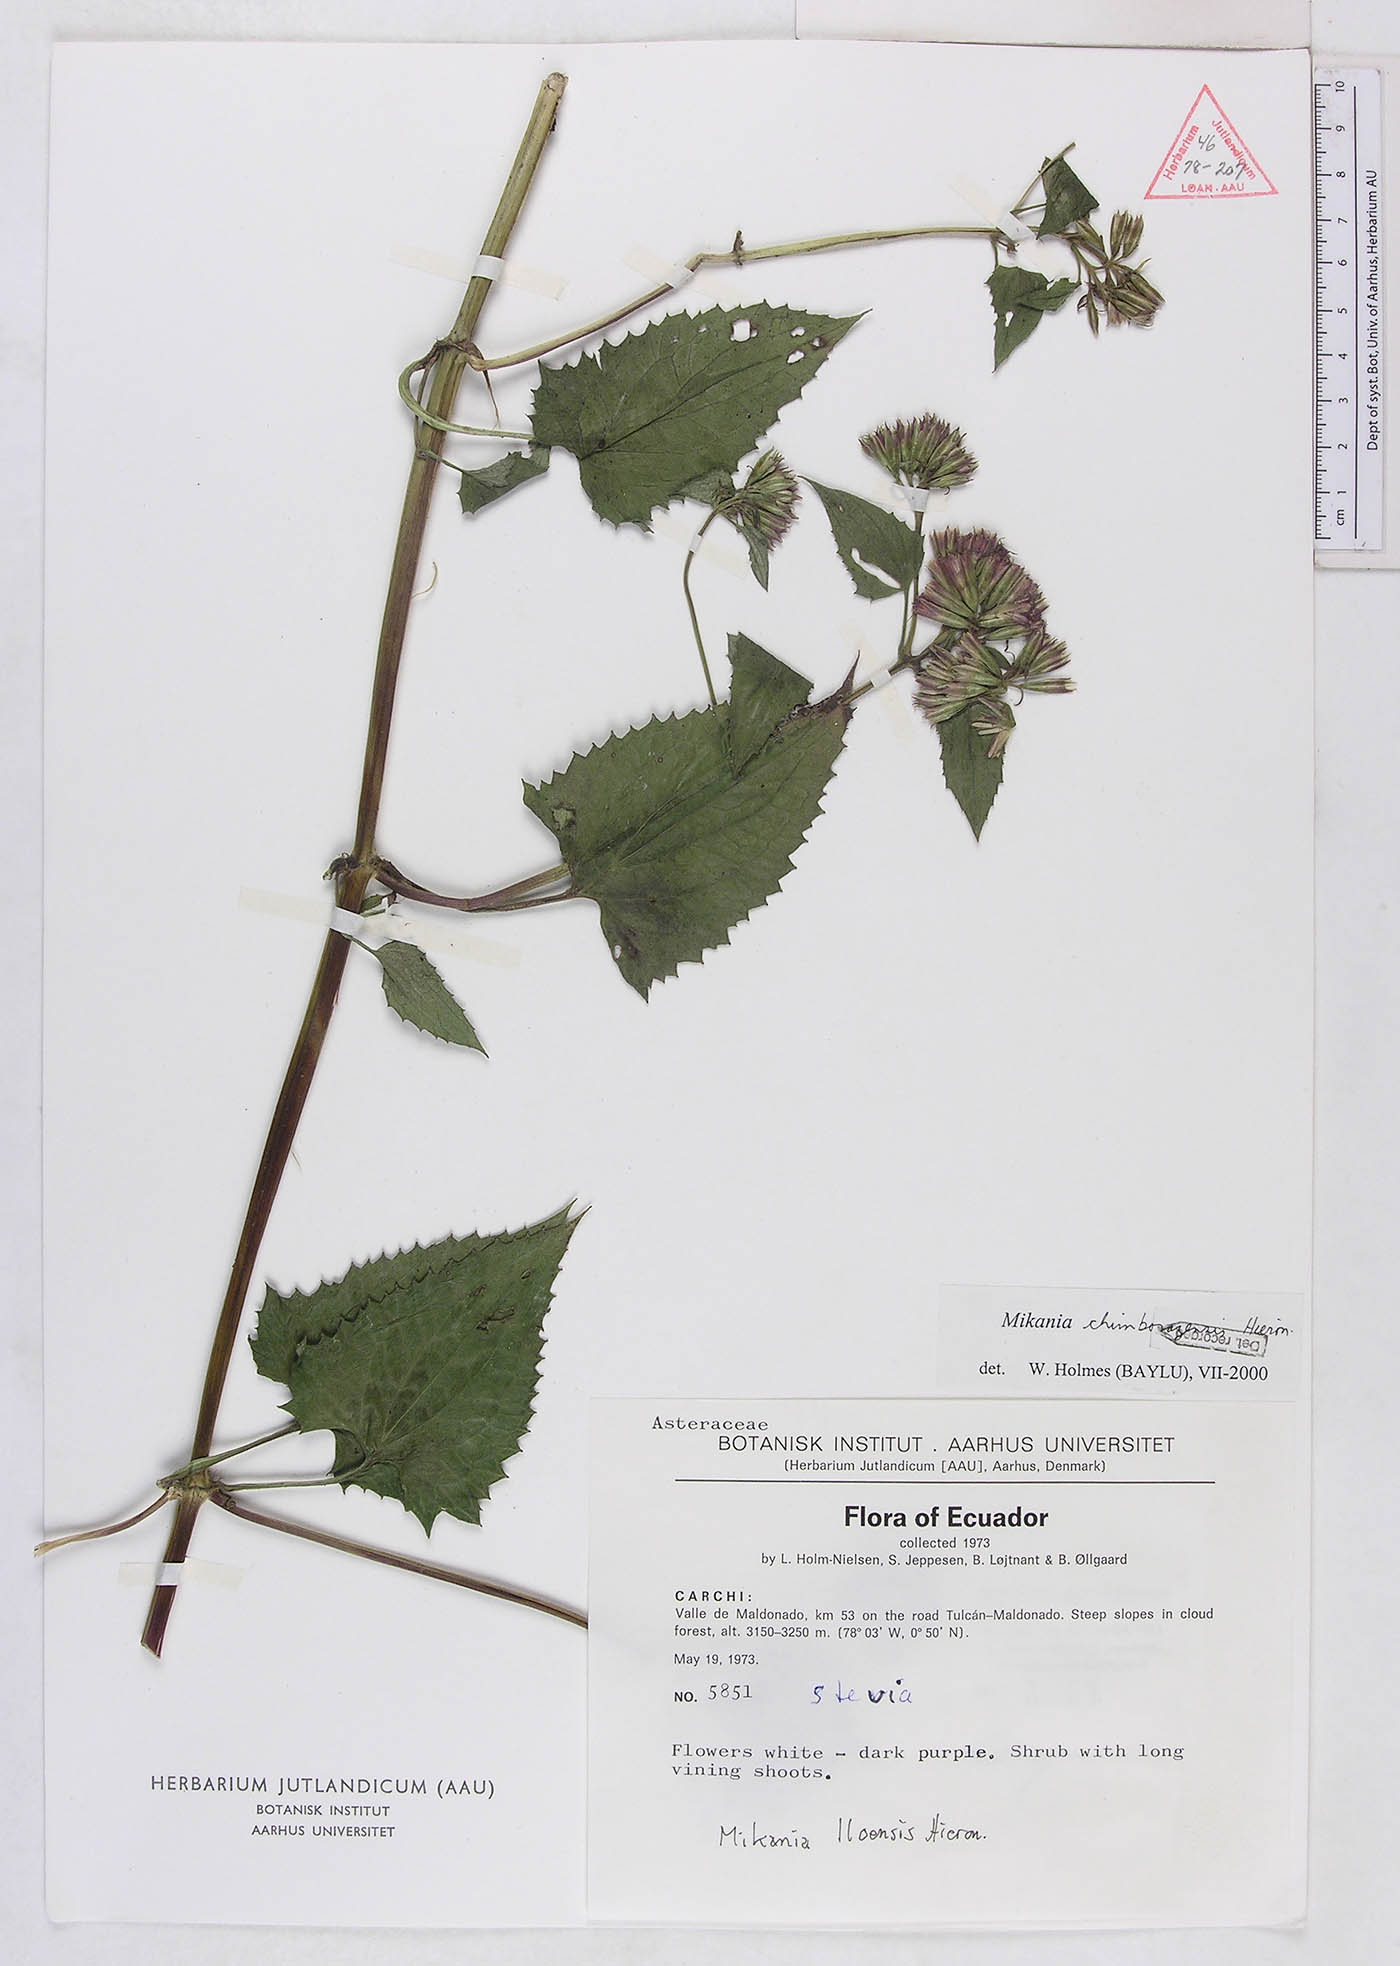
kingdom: Plantae
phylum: Tracheophyta
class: Magnoliopsida
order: Asterales
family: Asteraceae
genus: Mikania
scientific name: Mikania chimborazensis
